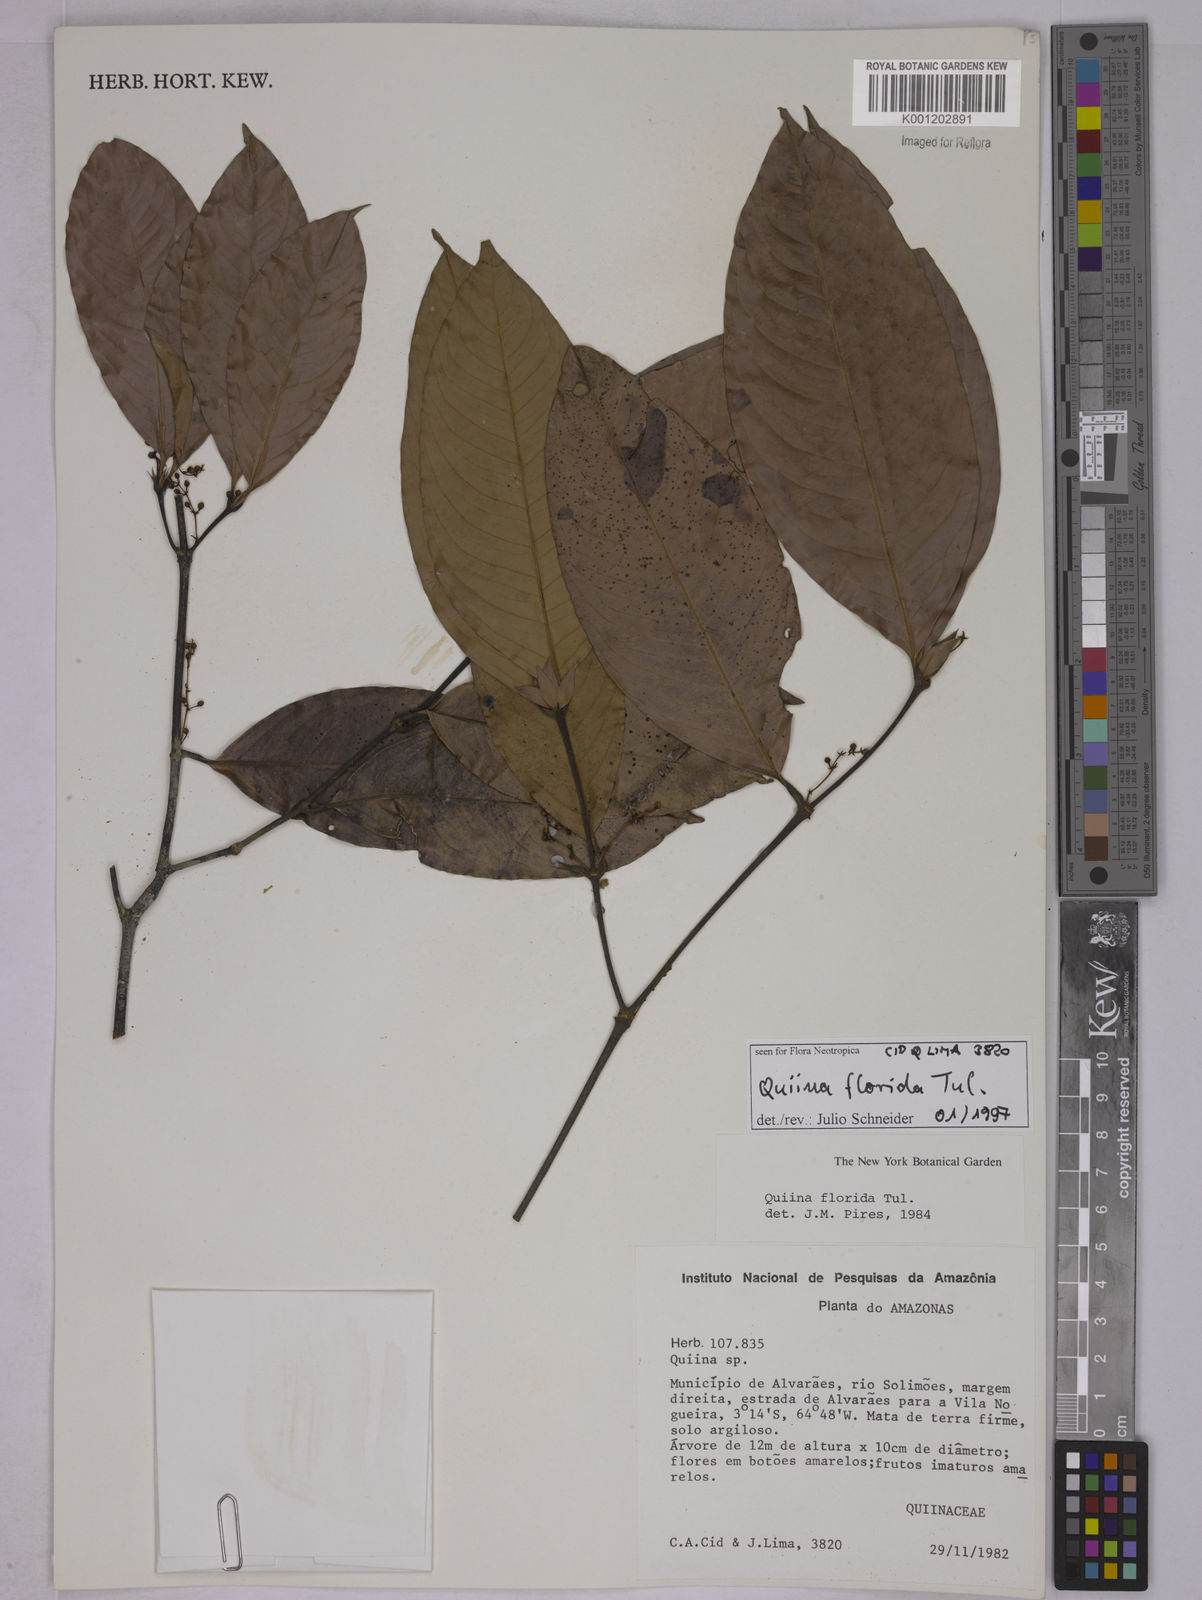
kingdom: Plantae
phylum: Tracheophyta
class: Magnoliopsida
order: Malpighiales
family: Quiinaceae
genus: Quiina
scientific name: Quiina florida
